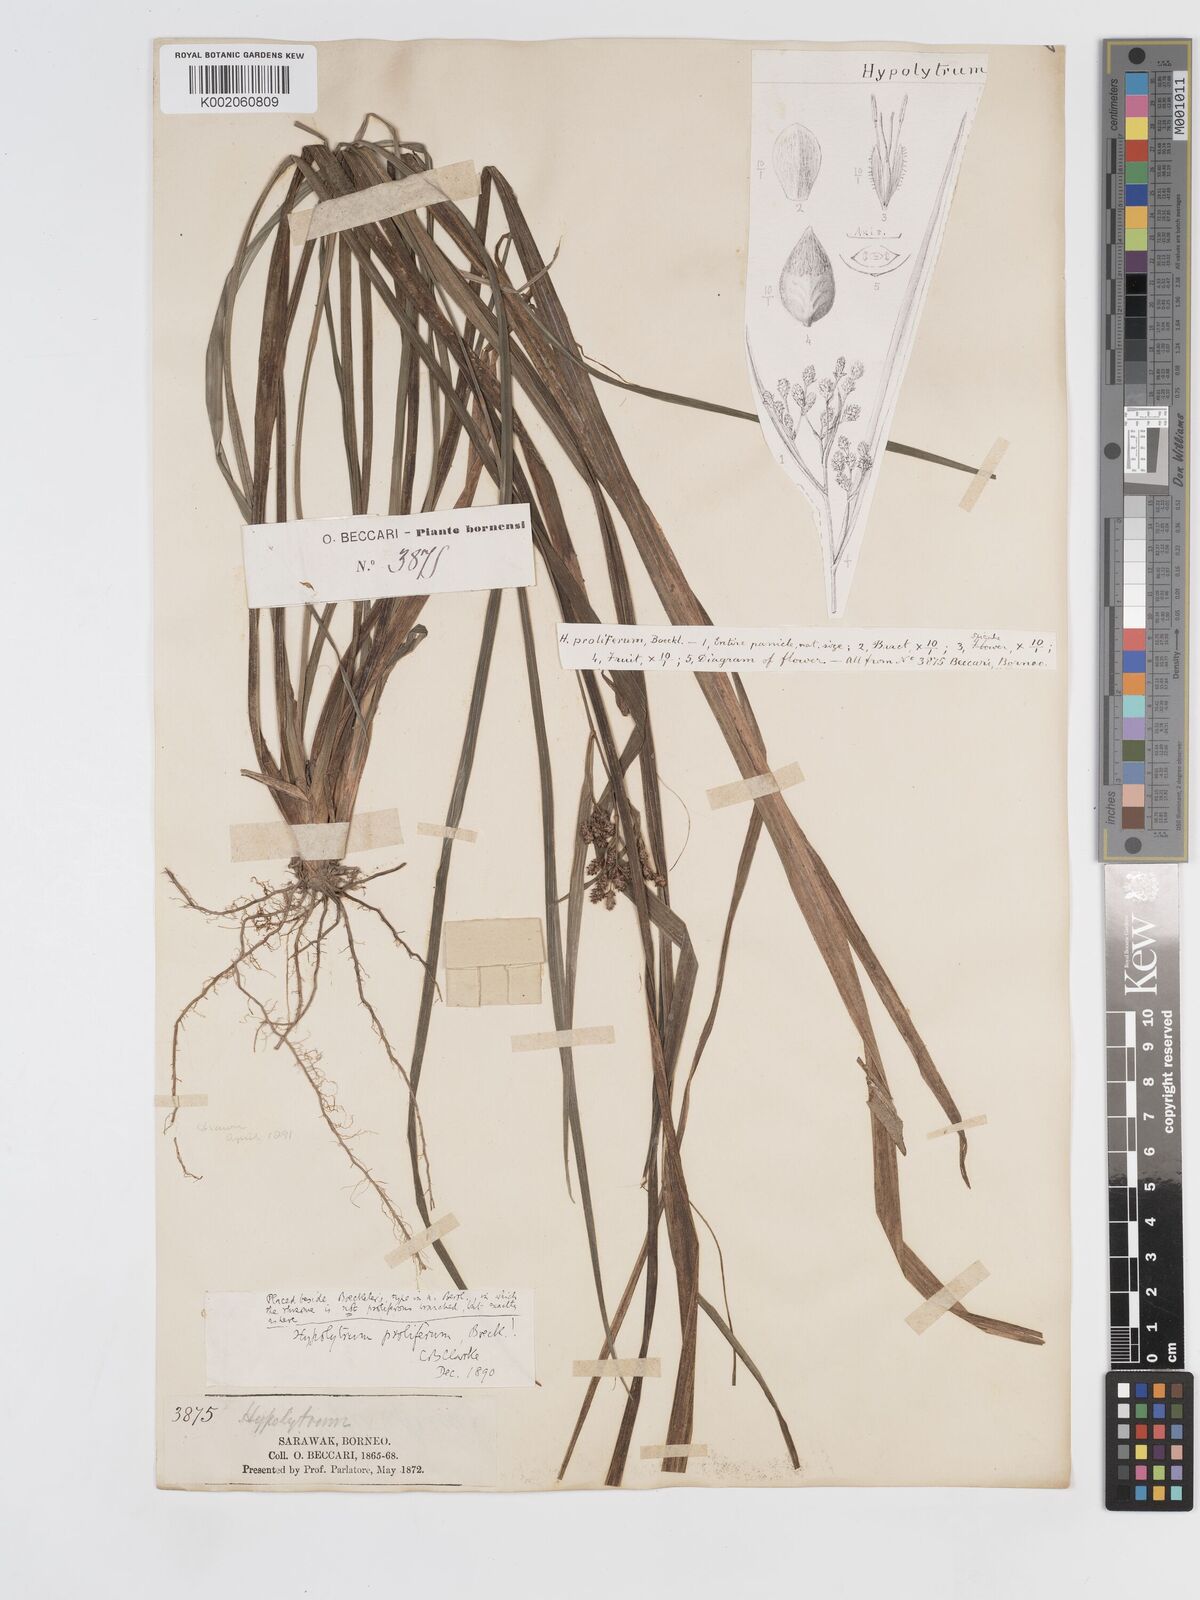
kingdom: Plantae
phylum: Tracheophyta
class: Liliopsida
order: Poales
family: Cyperaceae
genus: Hypolytrum
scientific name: Hypolytrum nemorum
